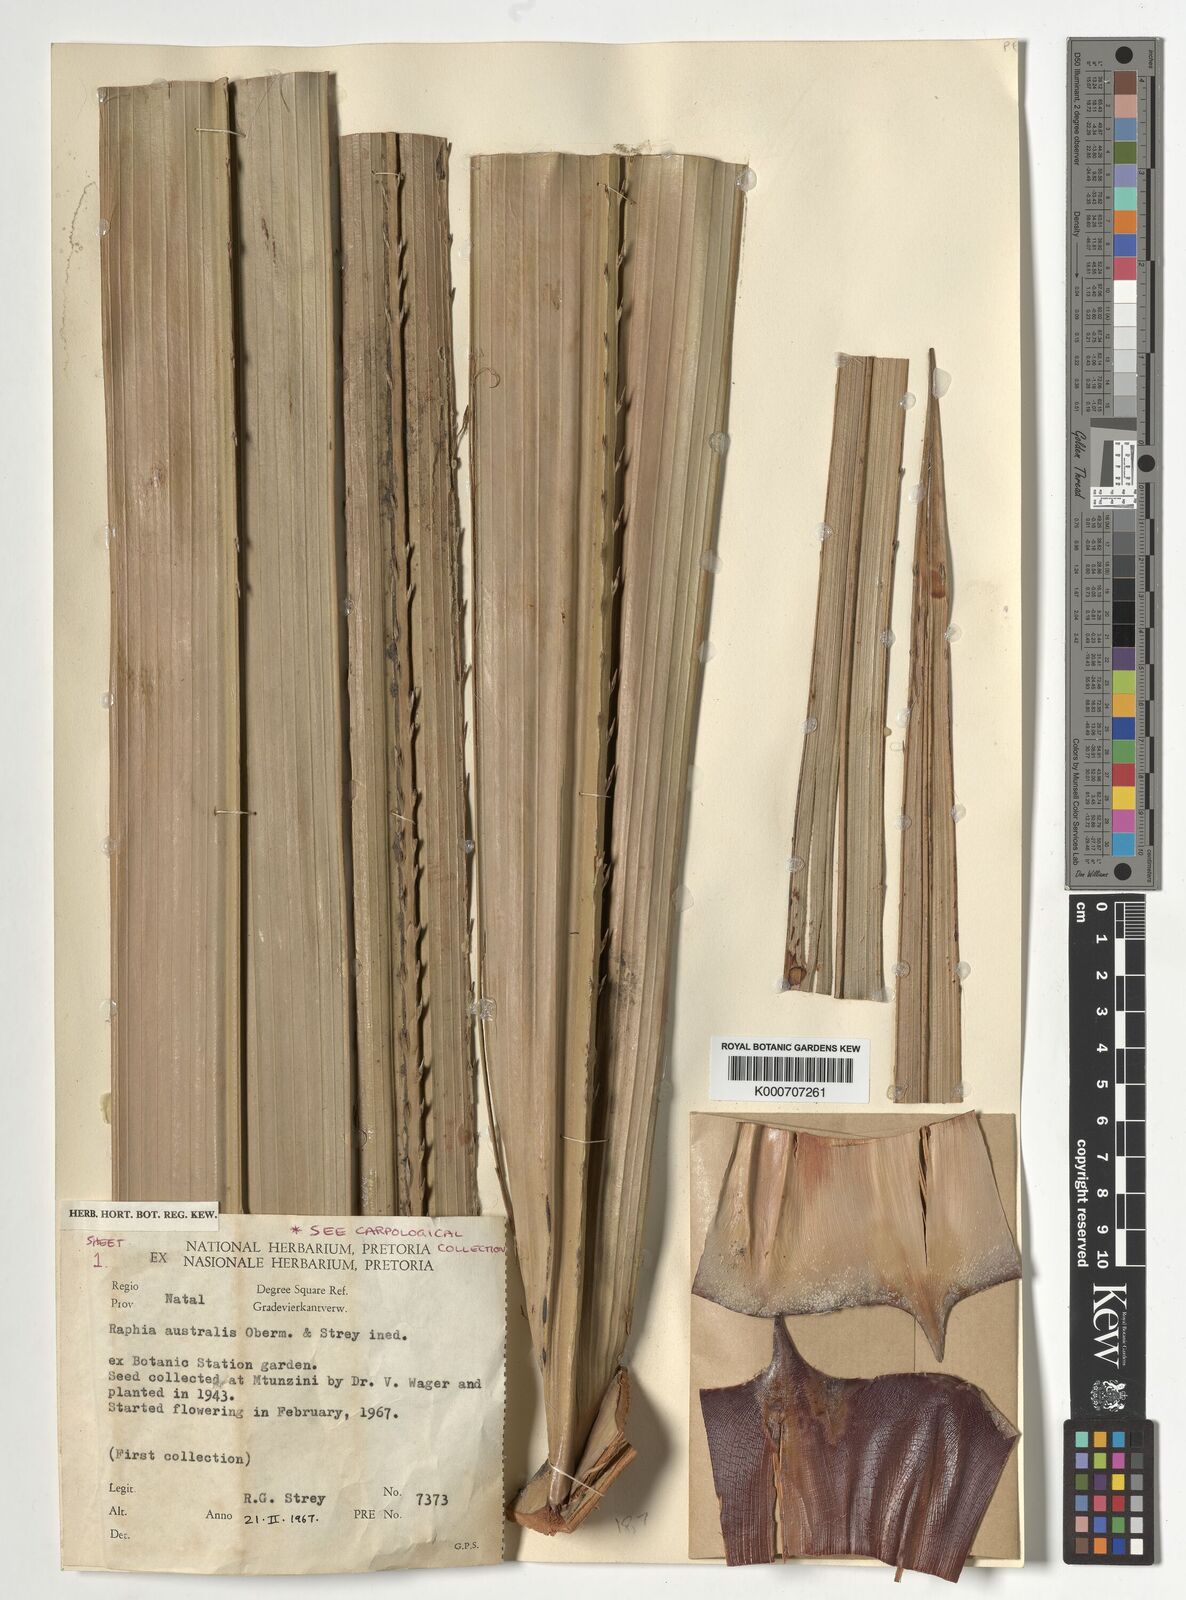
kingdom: Plantae
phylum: Tracheophyta
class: Liliopsida
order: Arecales
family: Arecaceae
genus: Raphia
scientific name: Raphia australis
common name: Giant palm
